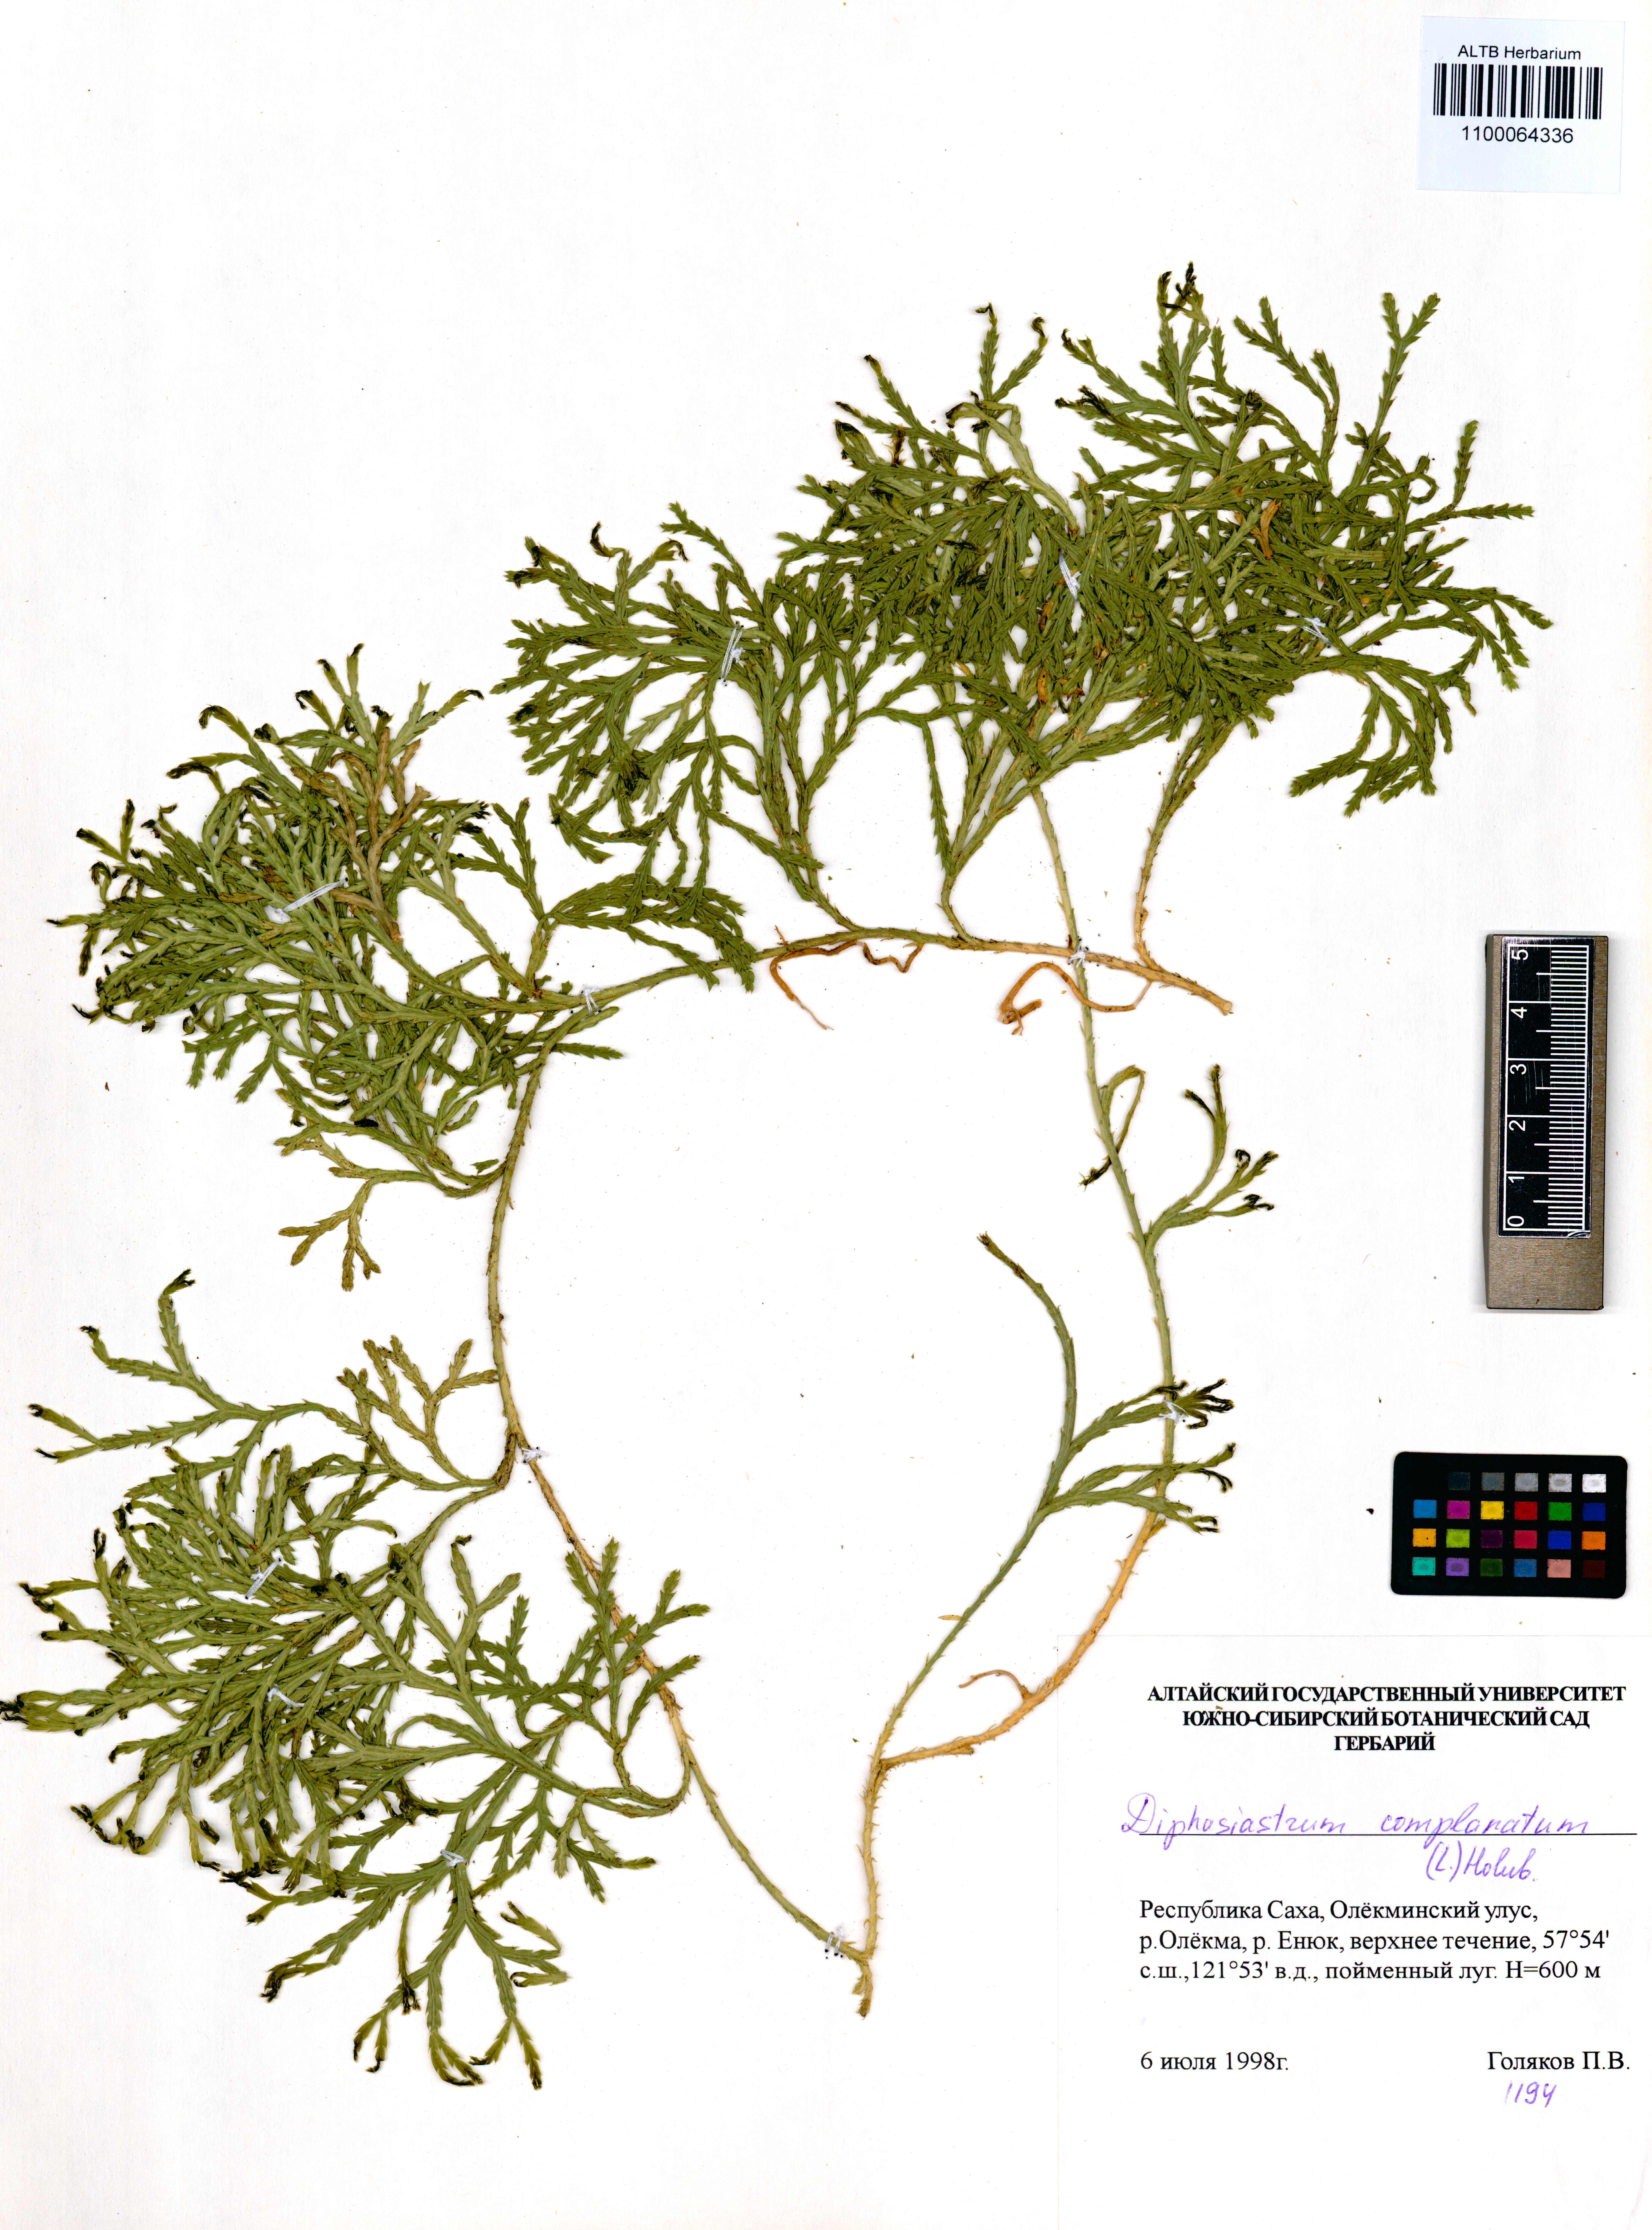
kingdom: Plantae
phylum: Tracheophyta
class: Lycopodiopsida
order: Lycopodiales
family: Lycopodiaceae
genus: Diphasiastrum
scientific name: Diphasiastrum complanatum
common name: Northern running-pine
